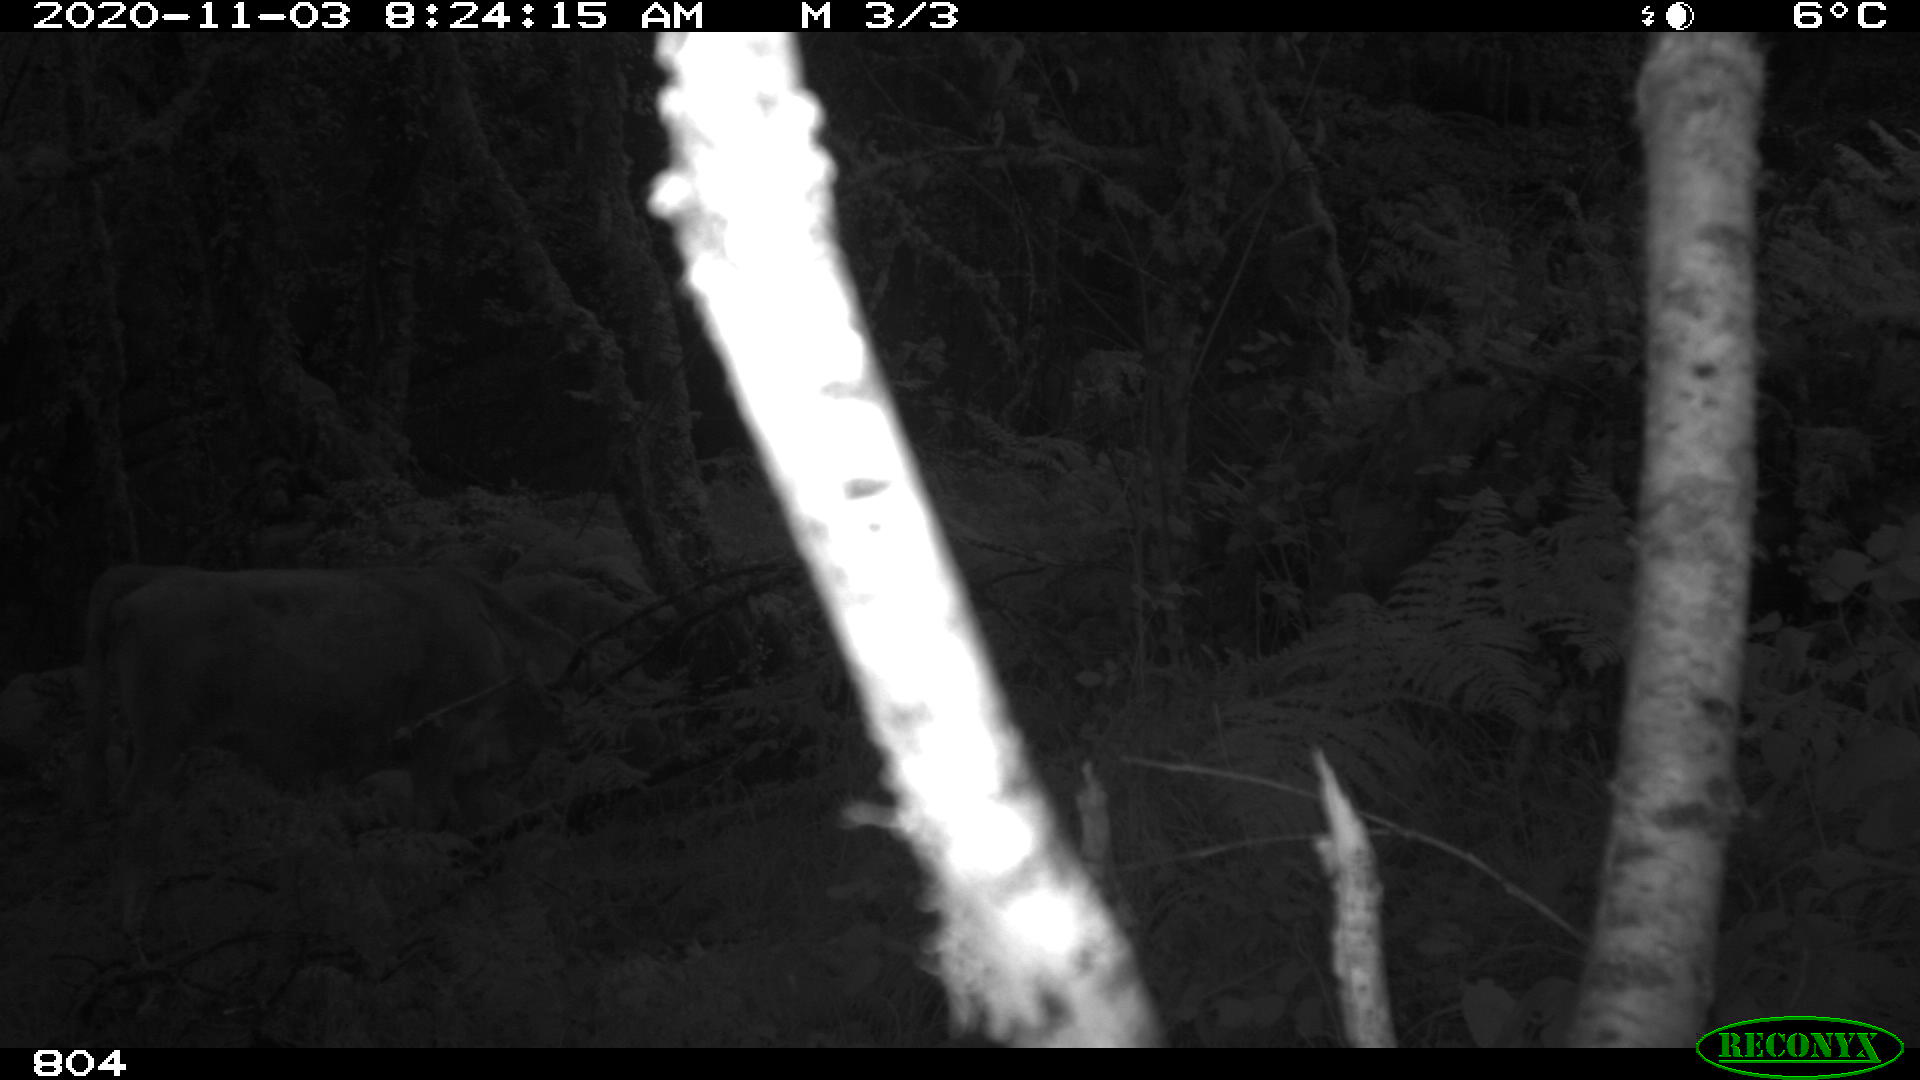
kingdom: Animalia
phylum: Chordata
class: Mammalia
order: Artiodactyla
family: Bovidae
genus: Bos
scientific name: Bos taurus
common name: Domesticated cattle
